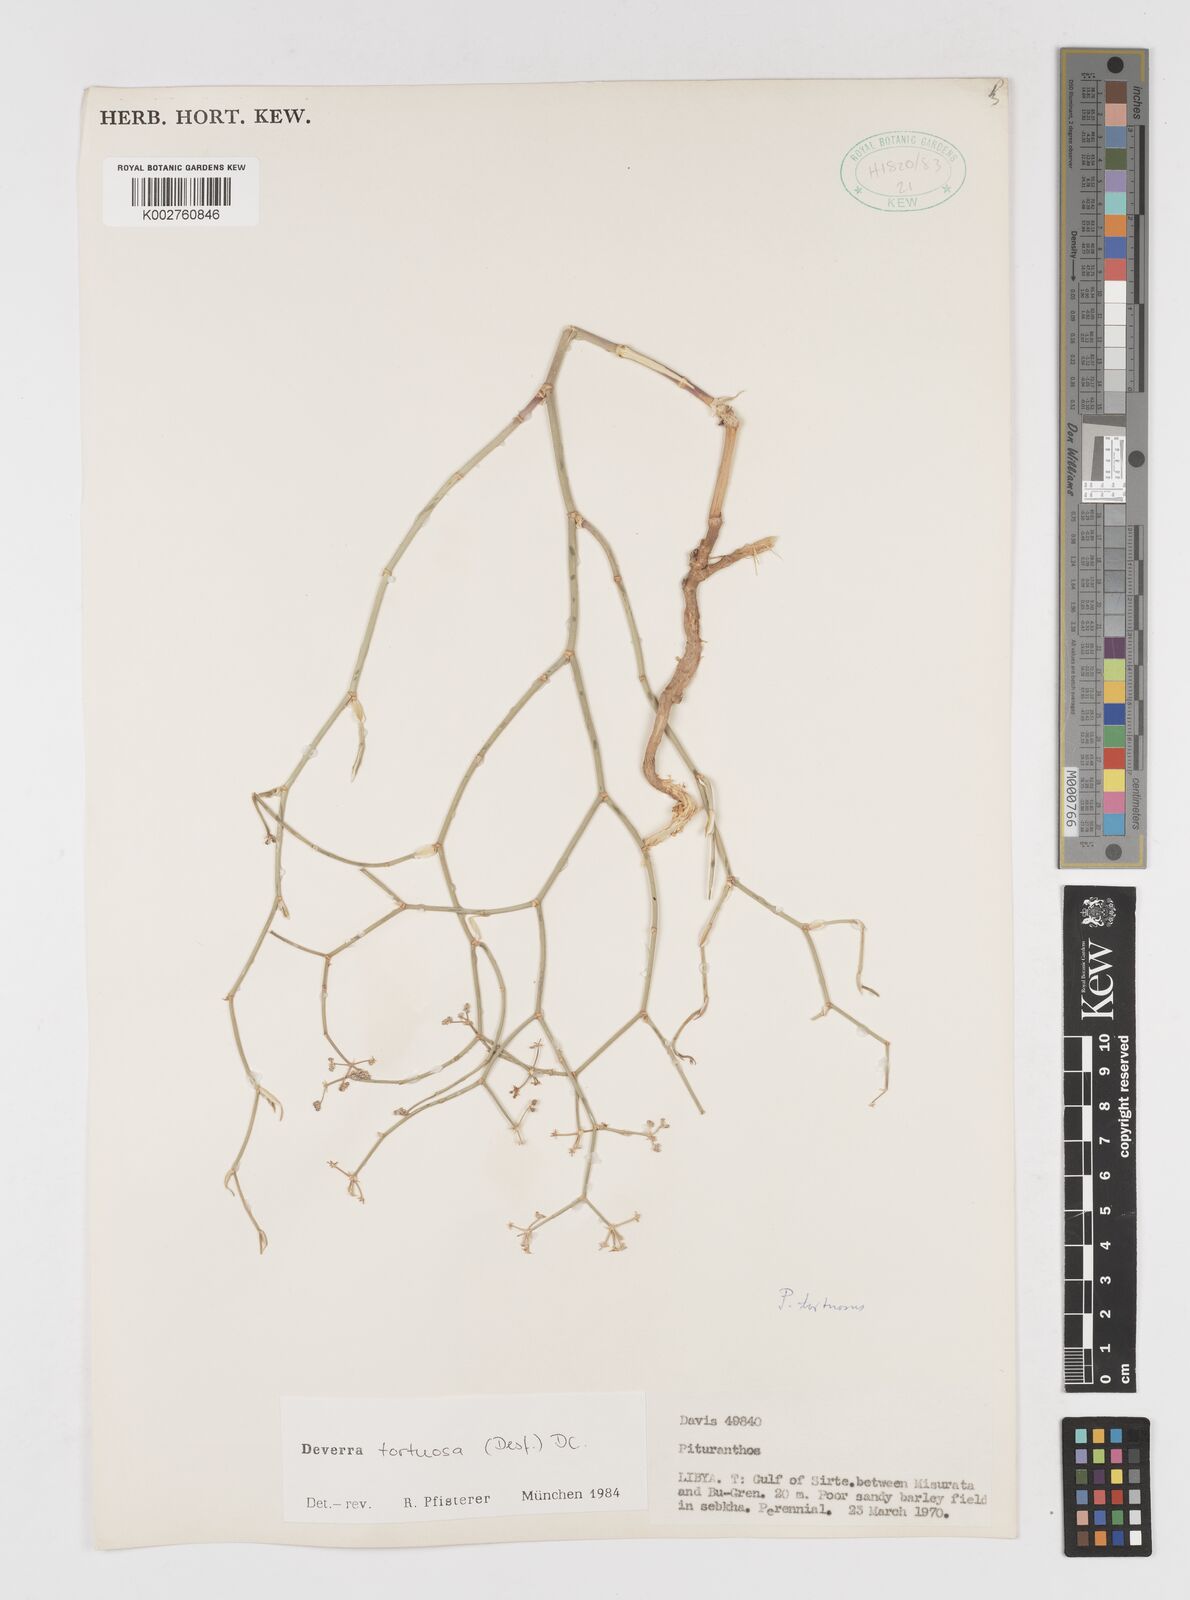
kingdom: Plantae
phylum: Tracheophyta
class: Magnoliopsida
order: Apiales
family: Apiaceae
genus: Deverra
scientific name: Deverra tortuosa
